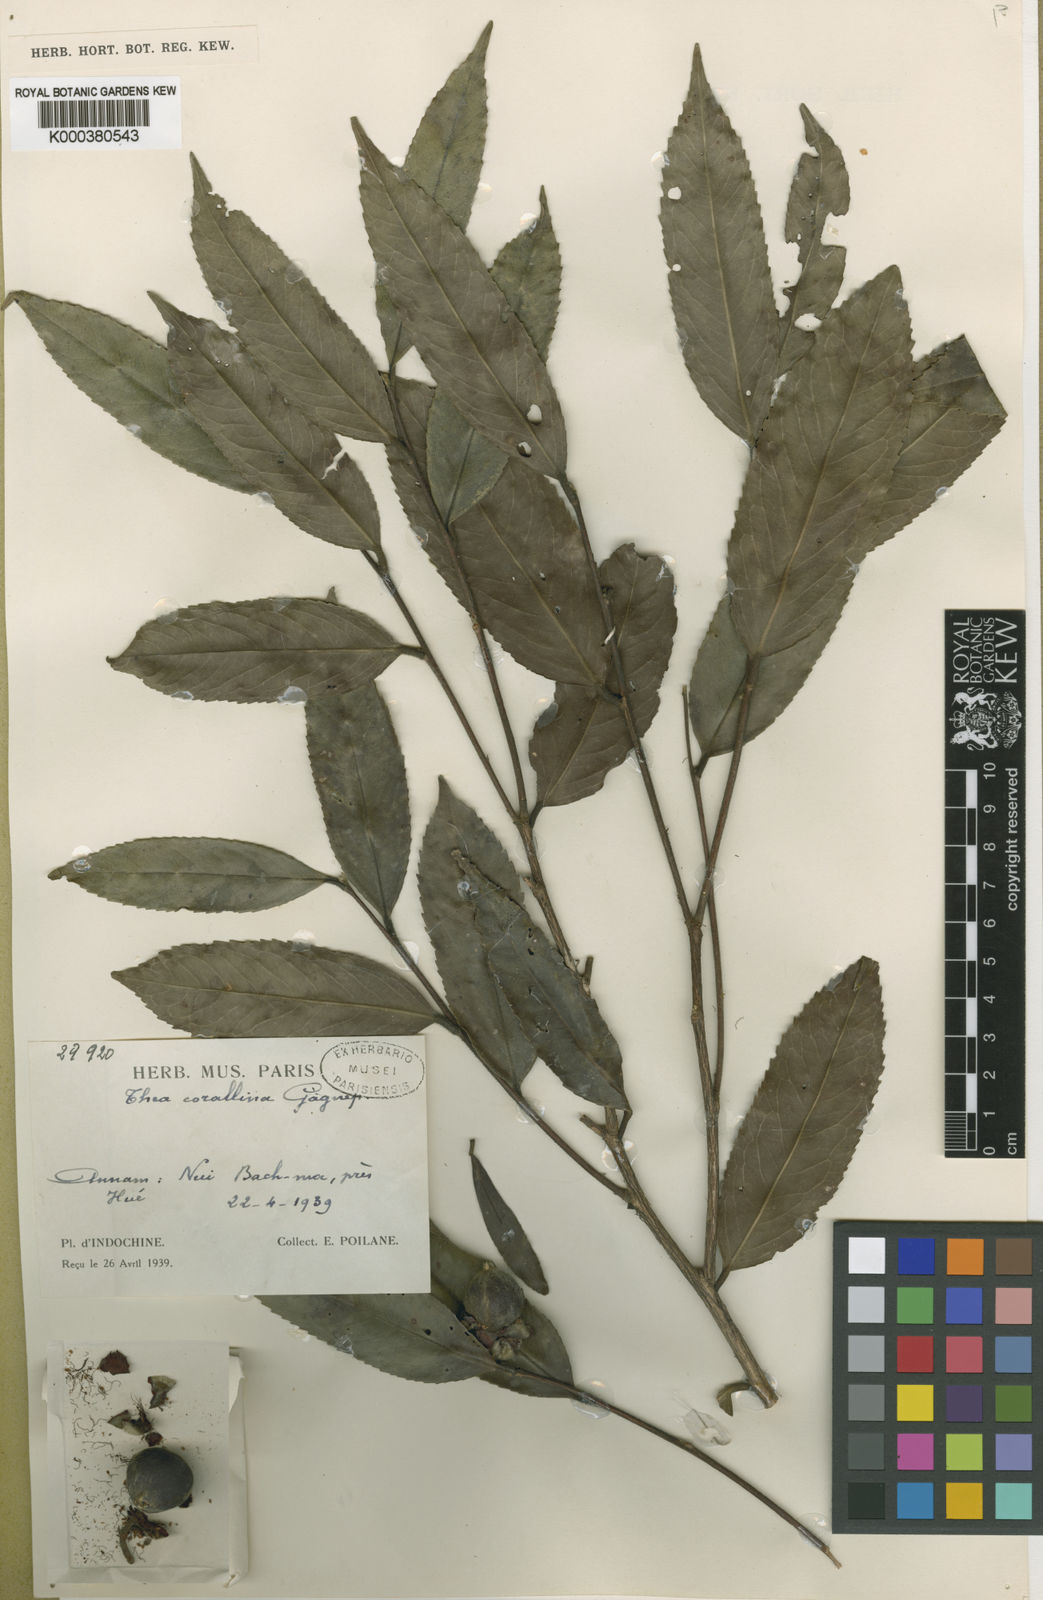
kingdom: Plantae
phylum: Tracheophyta
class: Magnoliopsida
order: Ericales
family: Theaceae
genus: Camellia
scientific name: Camellia corallina
